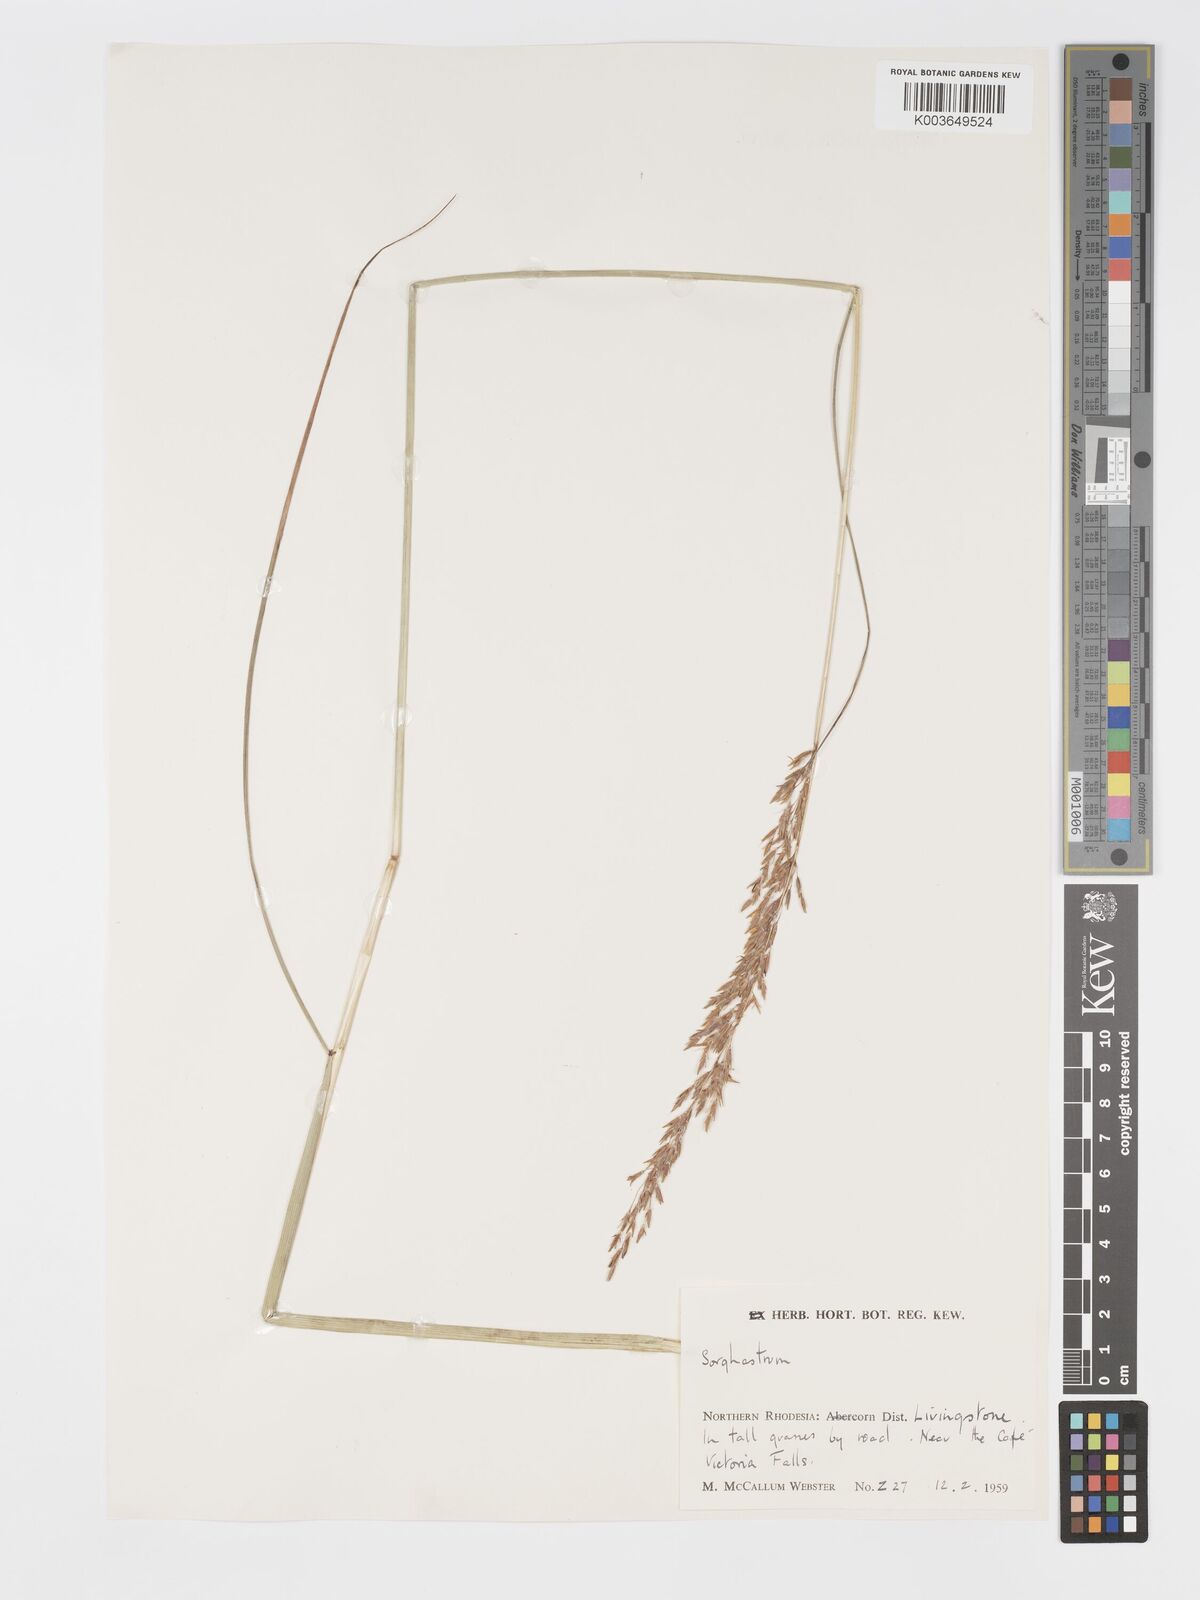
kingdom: Plantae
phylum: Tracheophyta
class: Liliopsida
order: Poales
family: Poaceae
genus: Sorghastrum
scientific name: Sorghastrum nudipes
